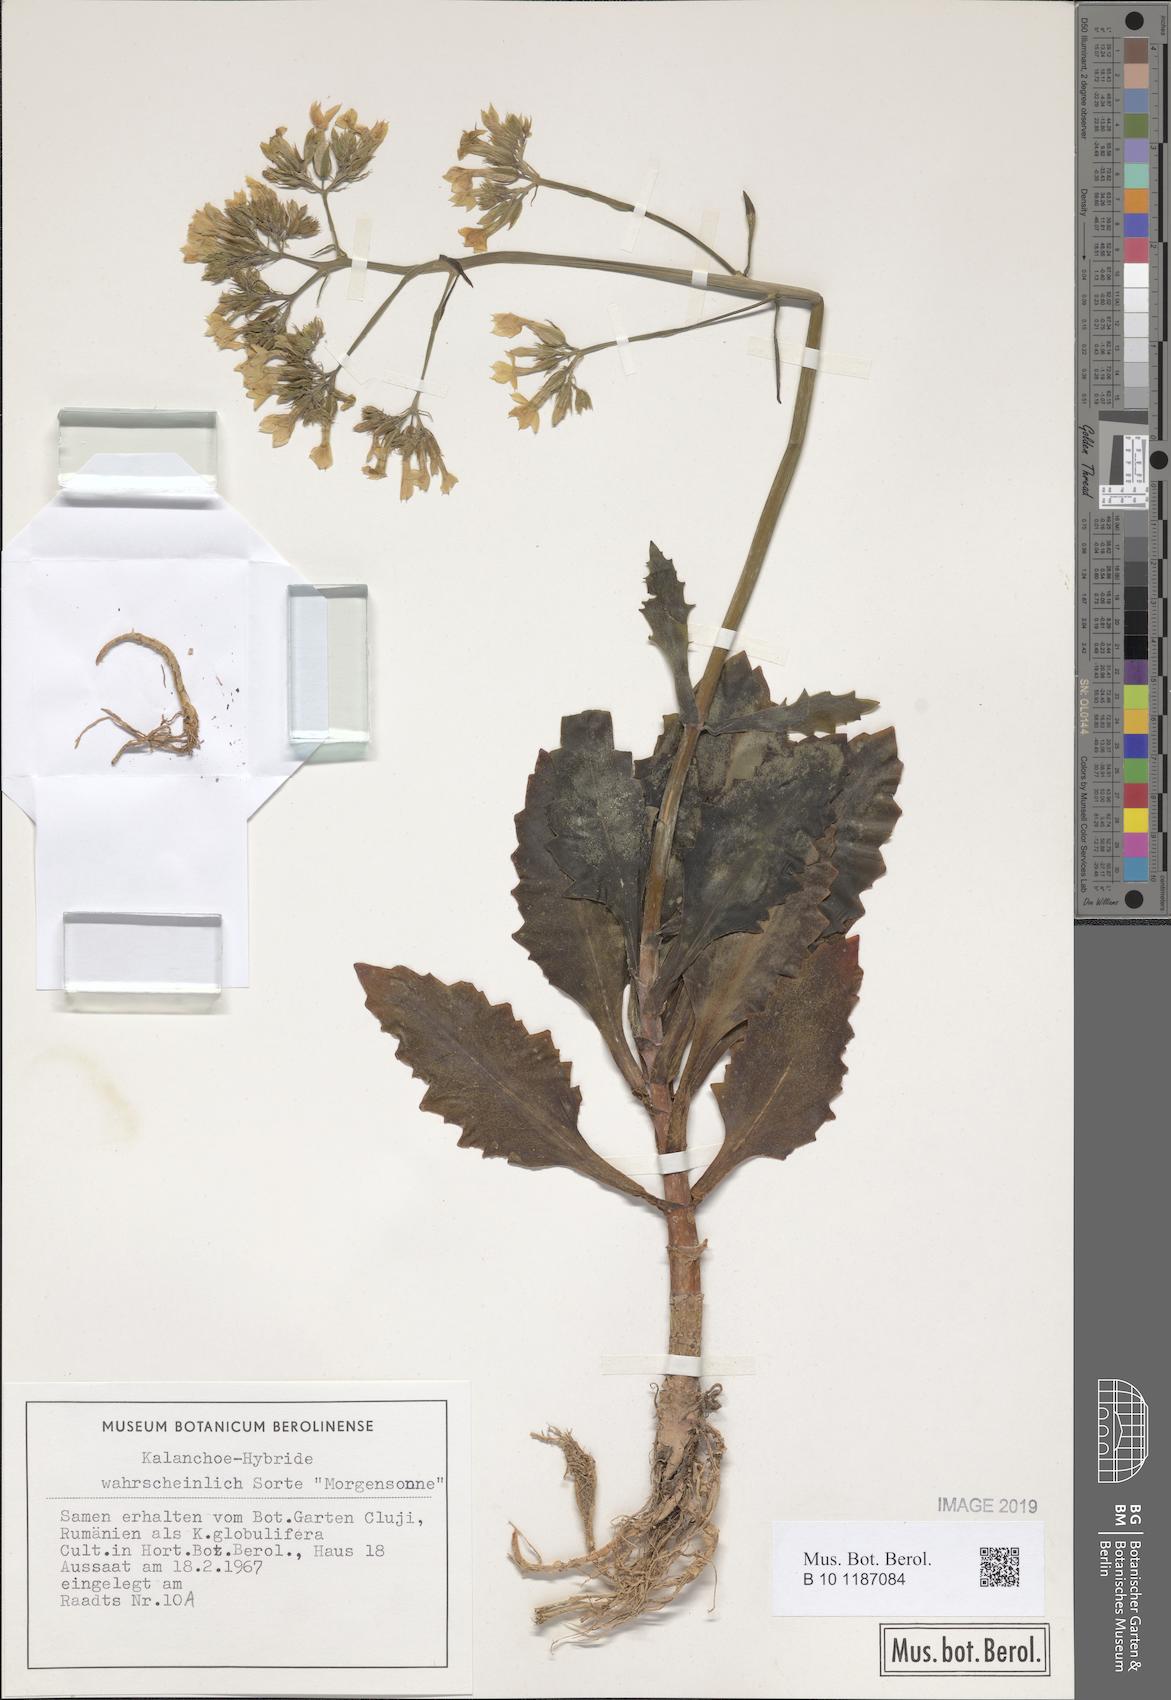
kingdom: Plantae
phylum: Tracheophyta
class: Magnoliopsida
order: Saxifragales
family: Crassulaceae
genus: Kalanchoe
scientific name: Kalanchoe
